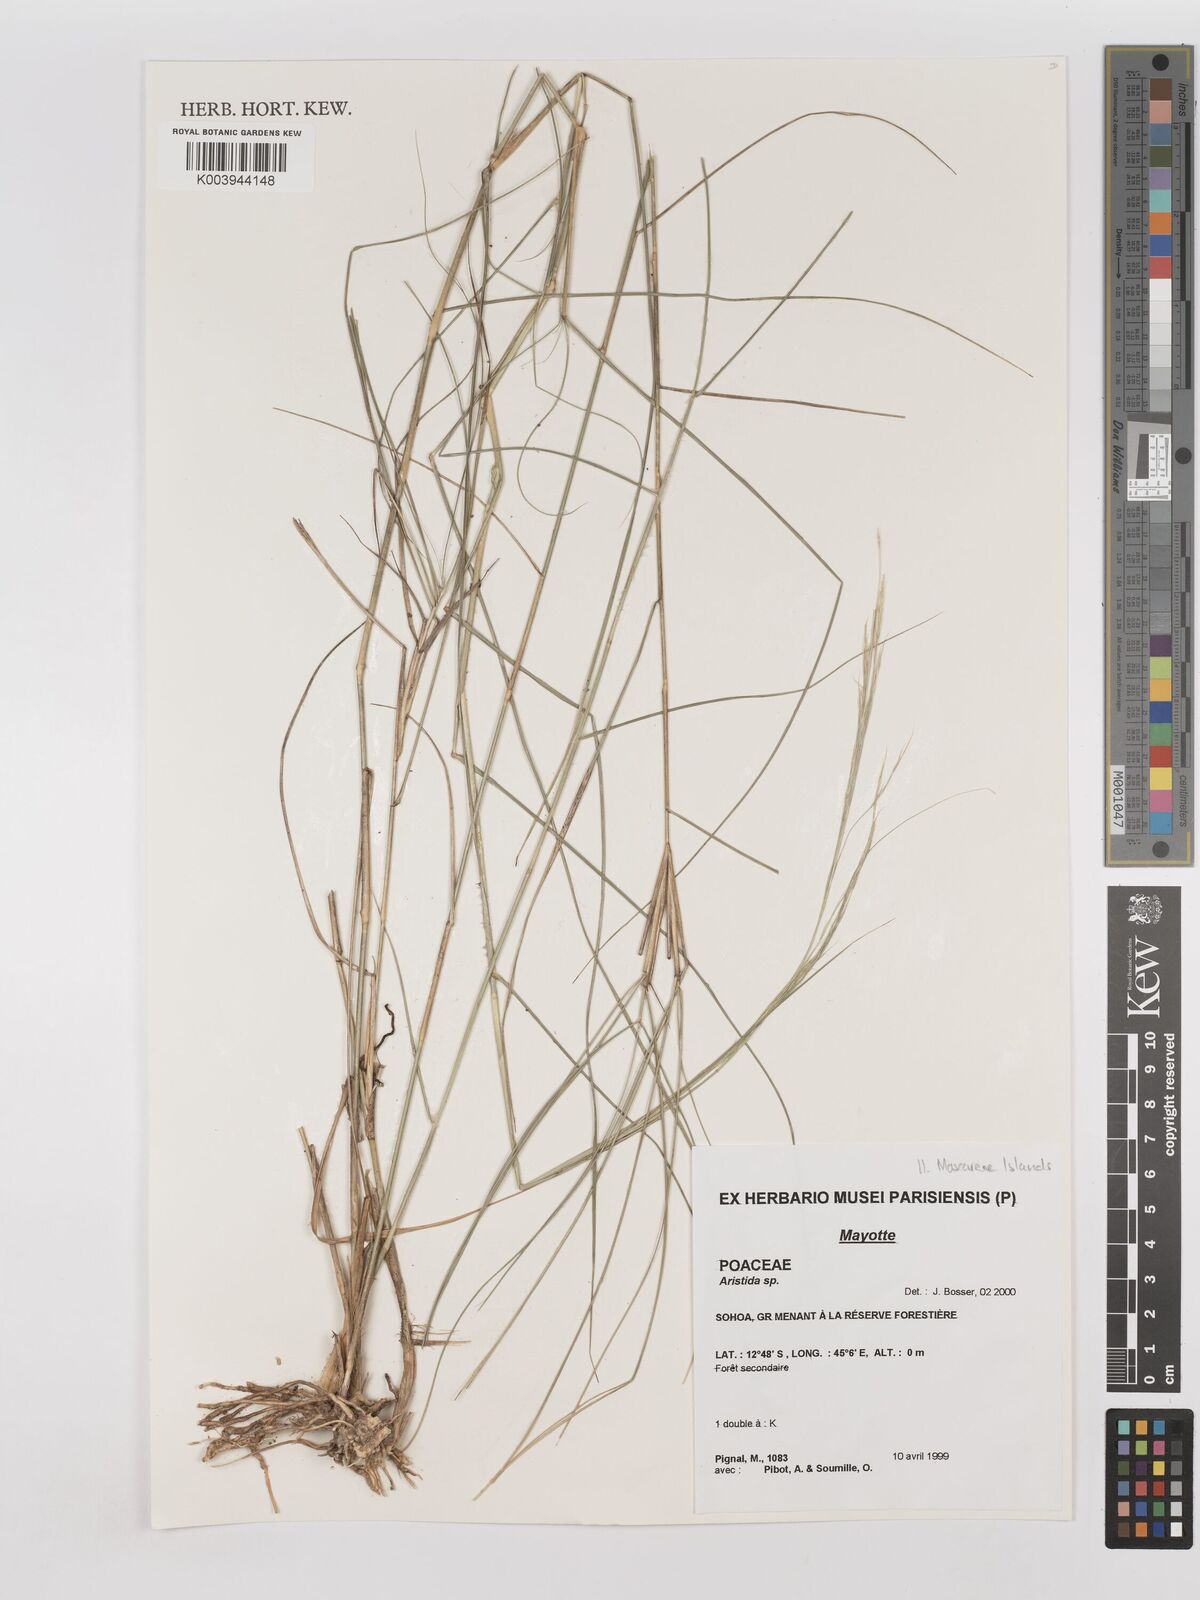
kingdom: Plantae
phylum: Tracheophyta
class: Liliopsida
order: Poales
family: Poaceae
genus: Aristida
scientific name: Aristida holathera
